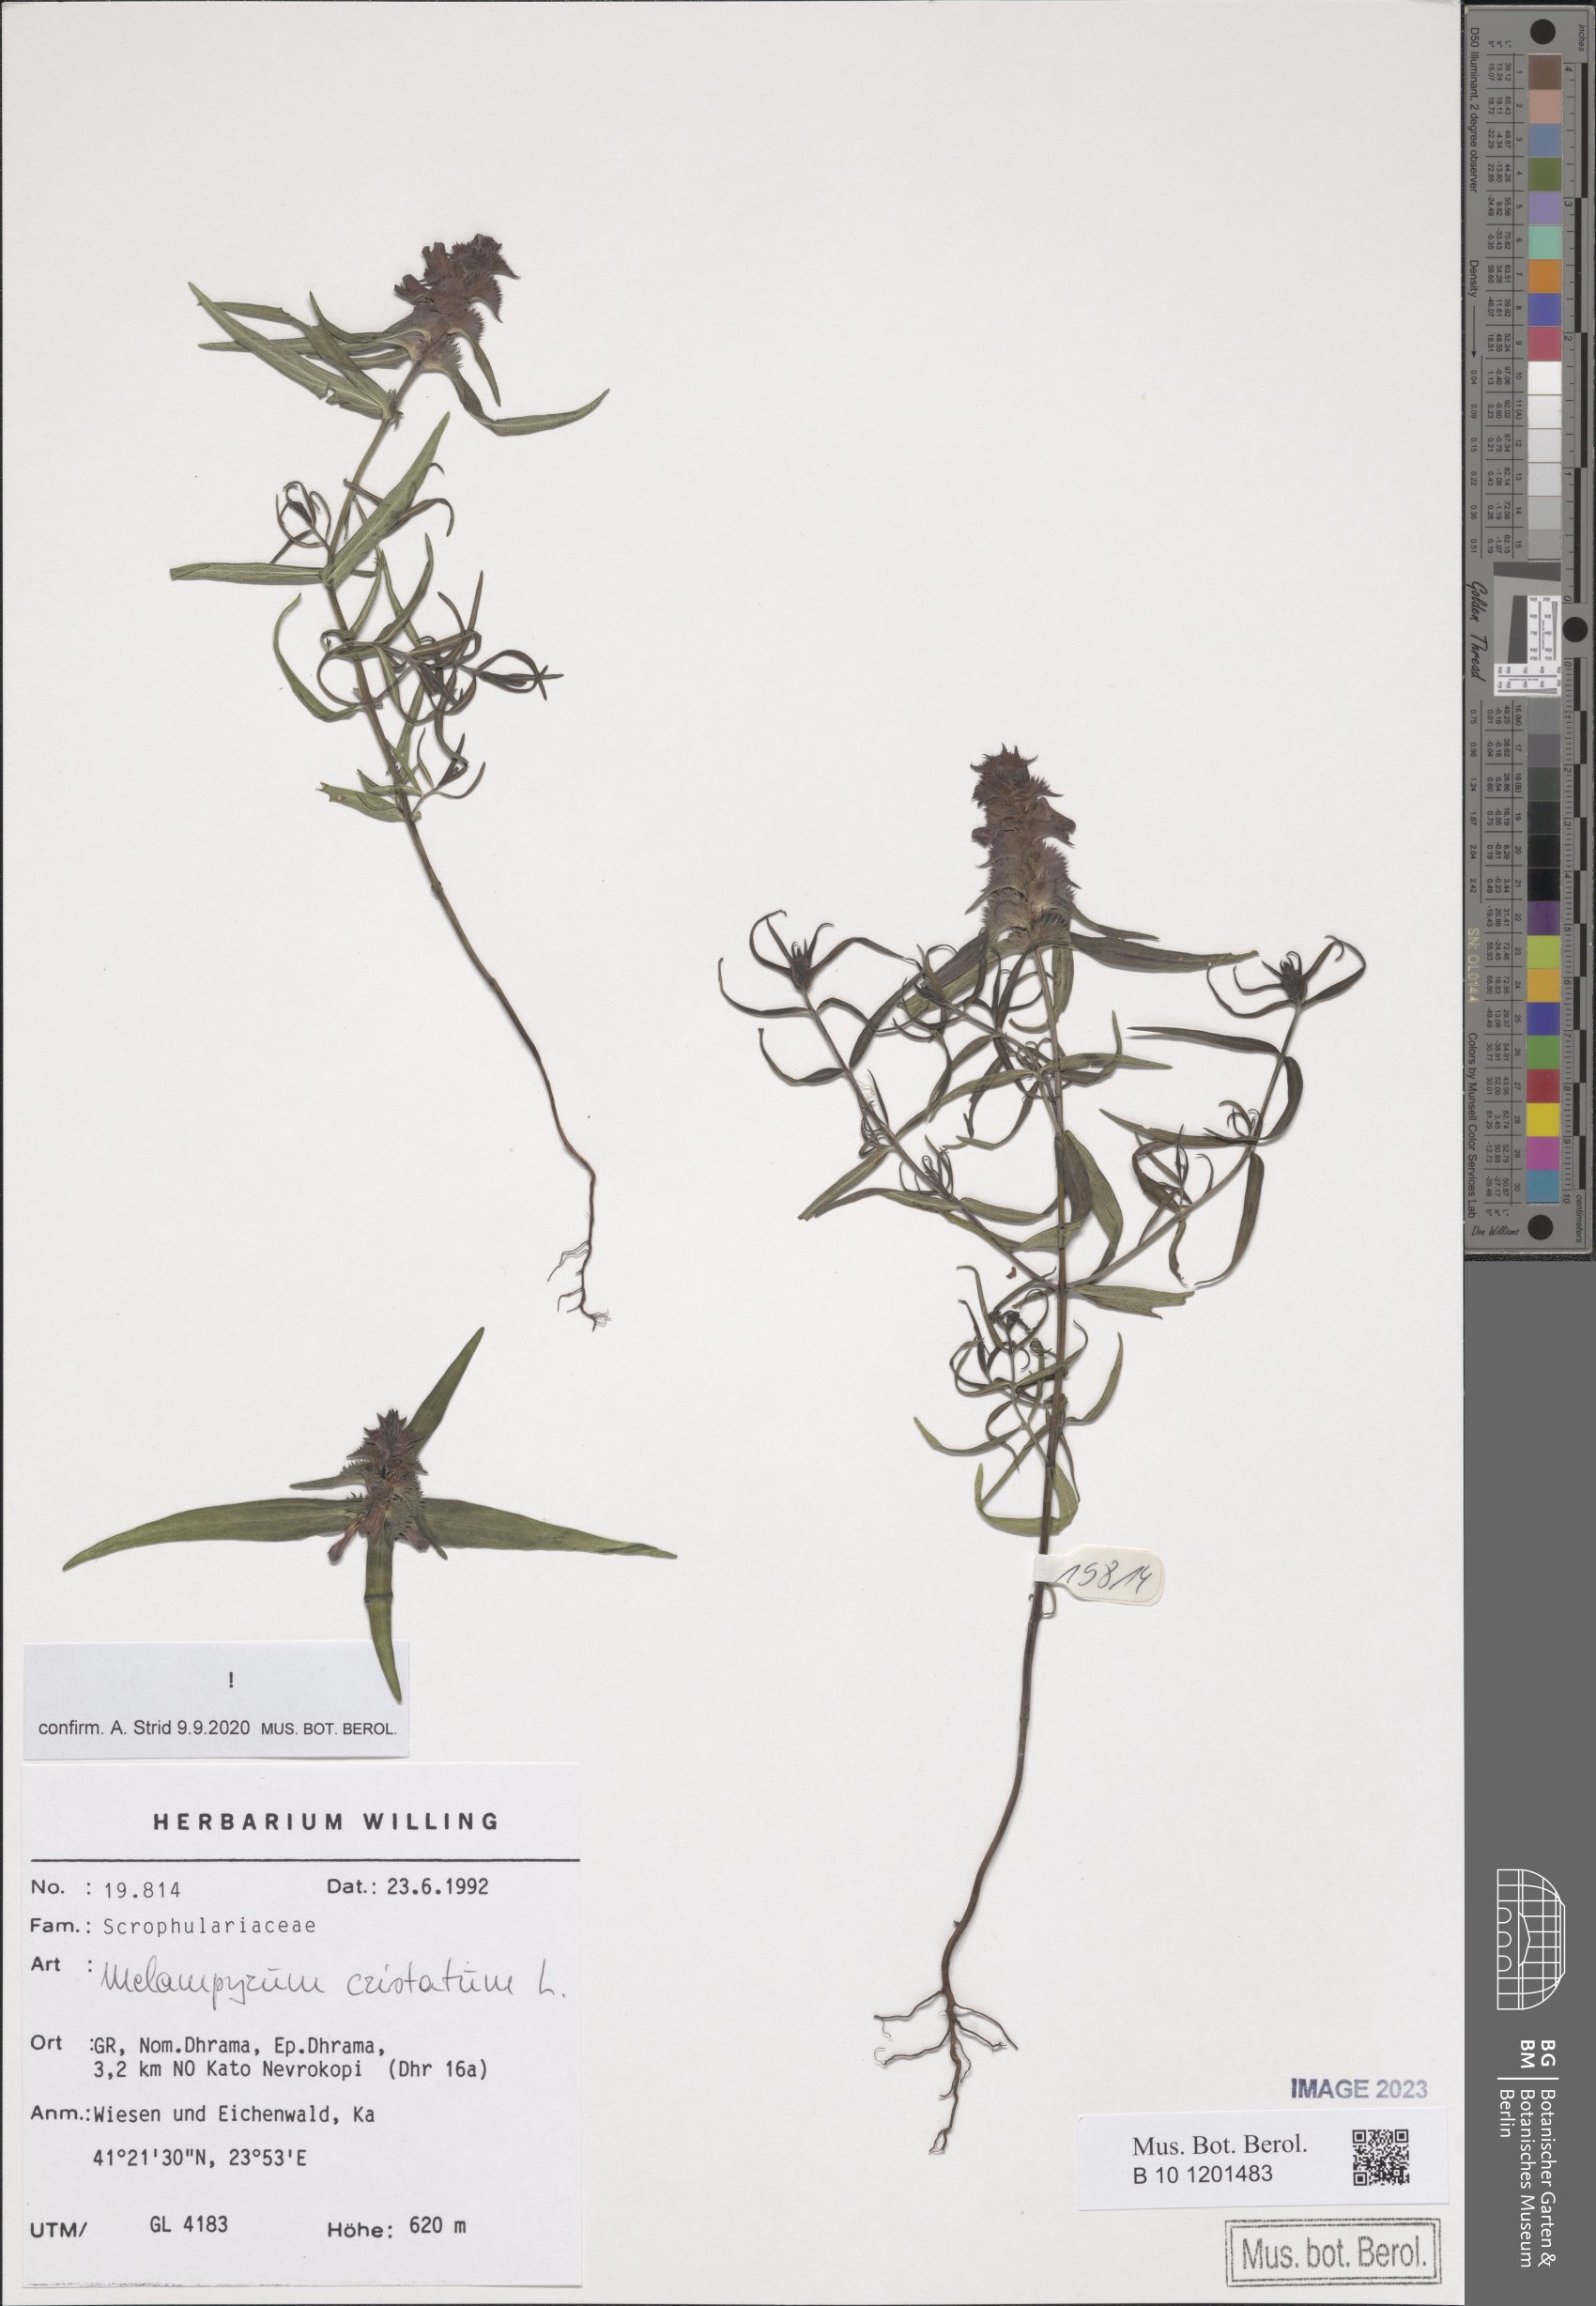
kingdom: Plantae
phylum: Tracheophyta
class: Magnoliopsida
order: Lamiales
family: Orobanchaceae
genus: Melampyrum
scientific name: Melampyrum cristatum
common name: Crested cow-wheat
